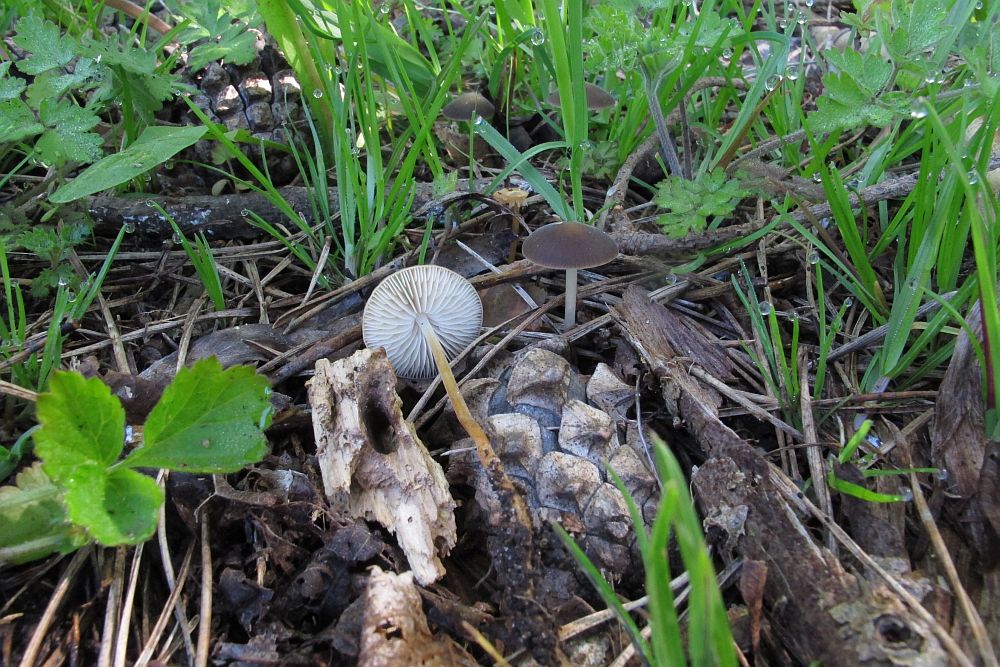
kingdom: Fungi
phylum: Basidiomycota
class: Agaricomycetes
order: Agaricales
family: Physalacriaceae
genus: Strobilurus
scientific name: Strobilurus tenacellus
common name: sommer-koglehat
